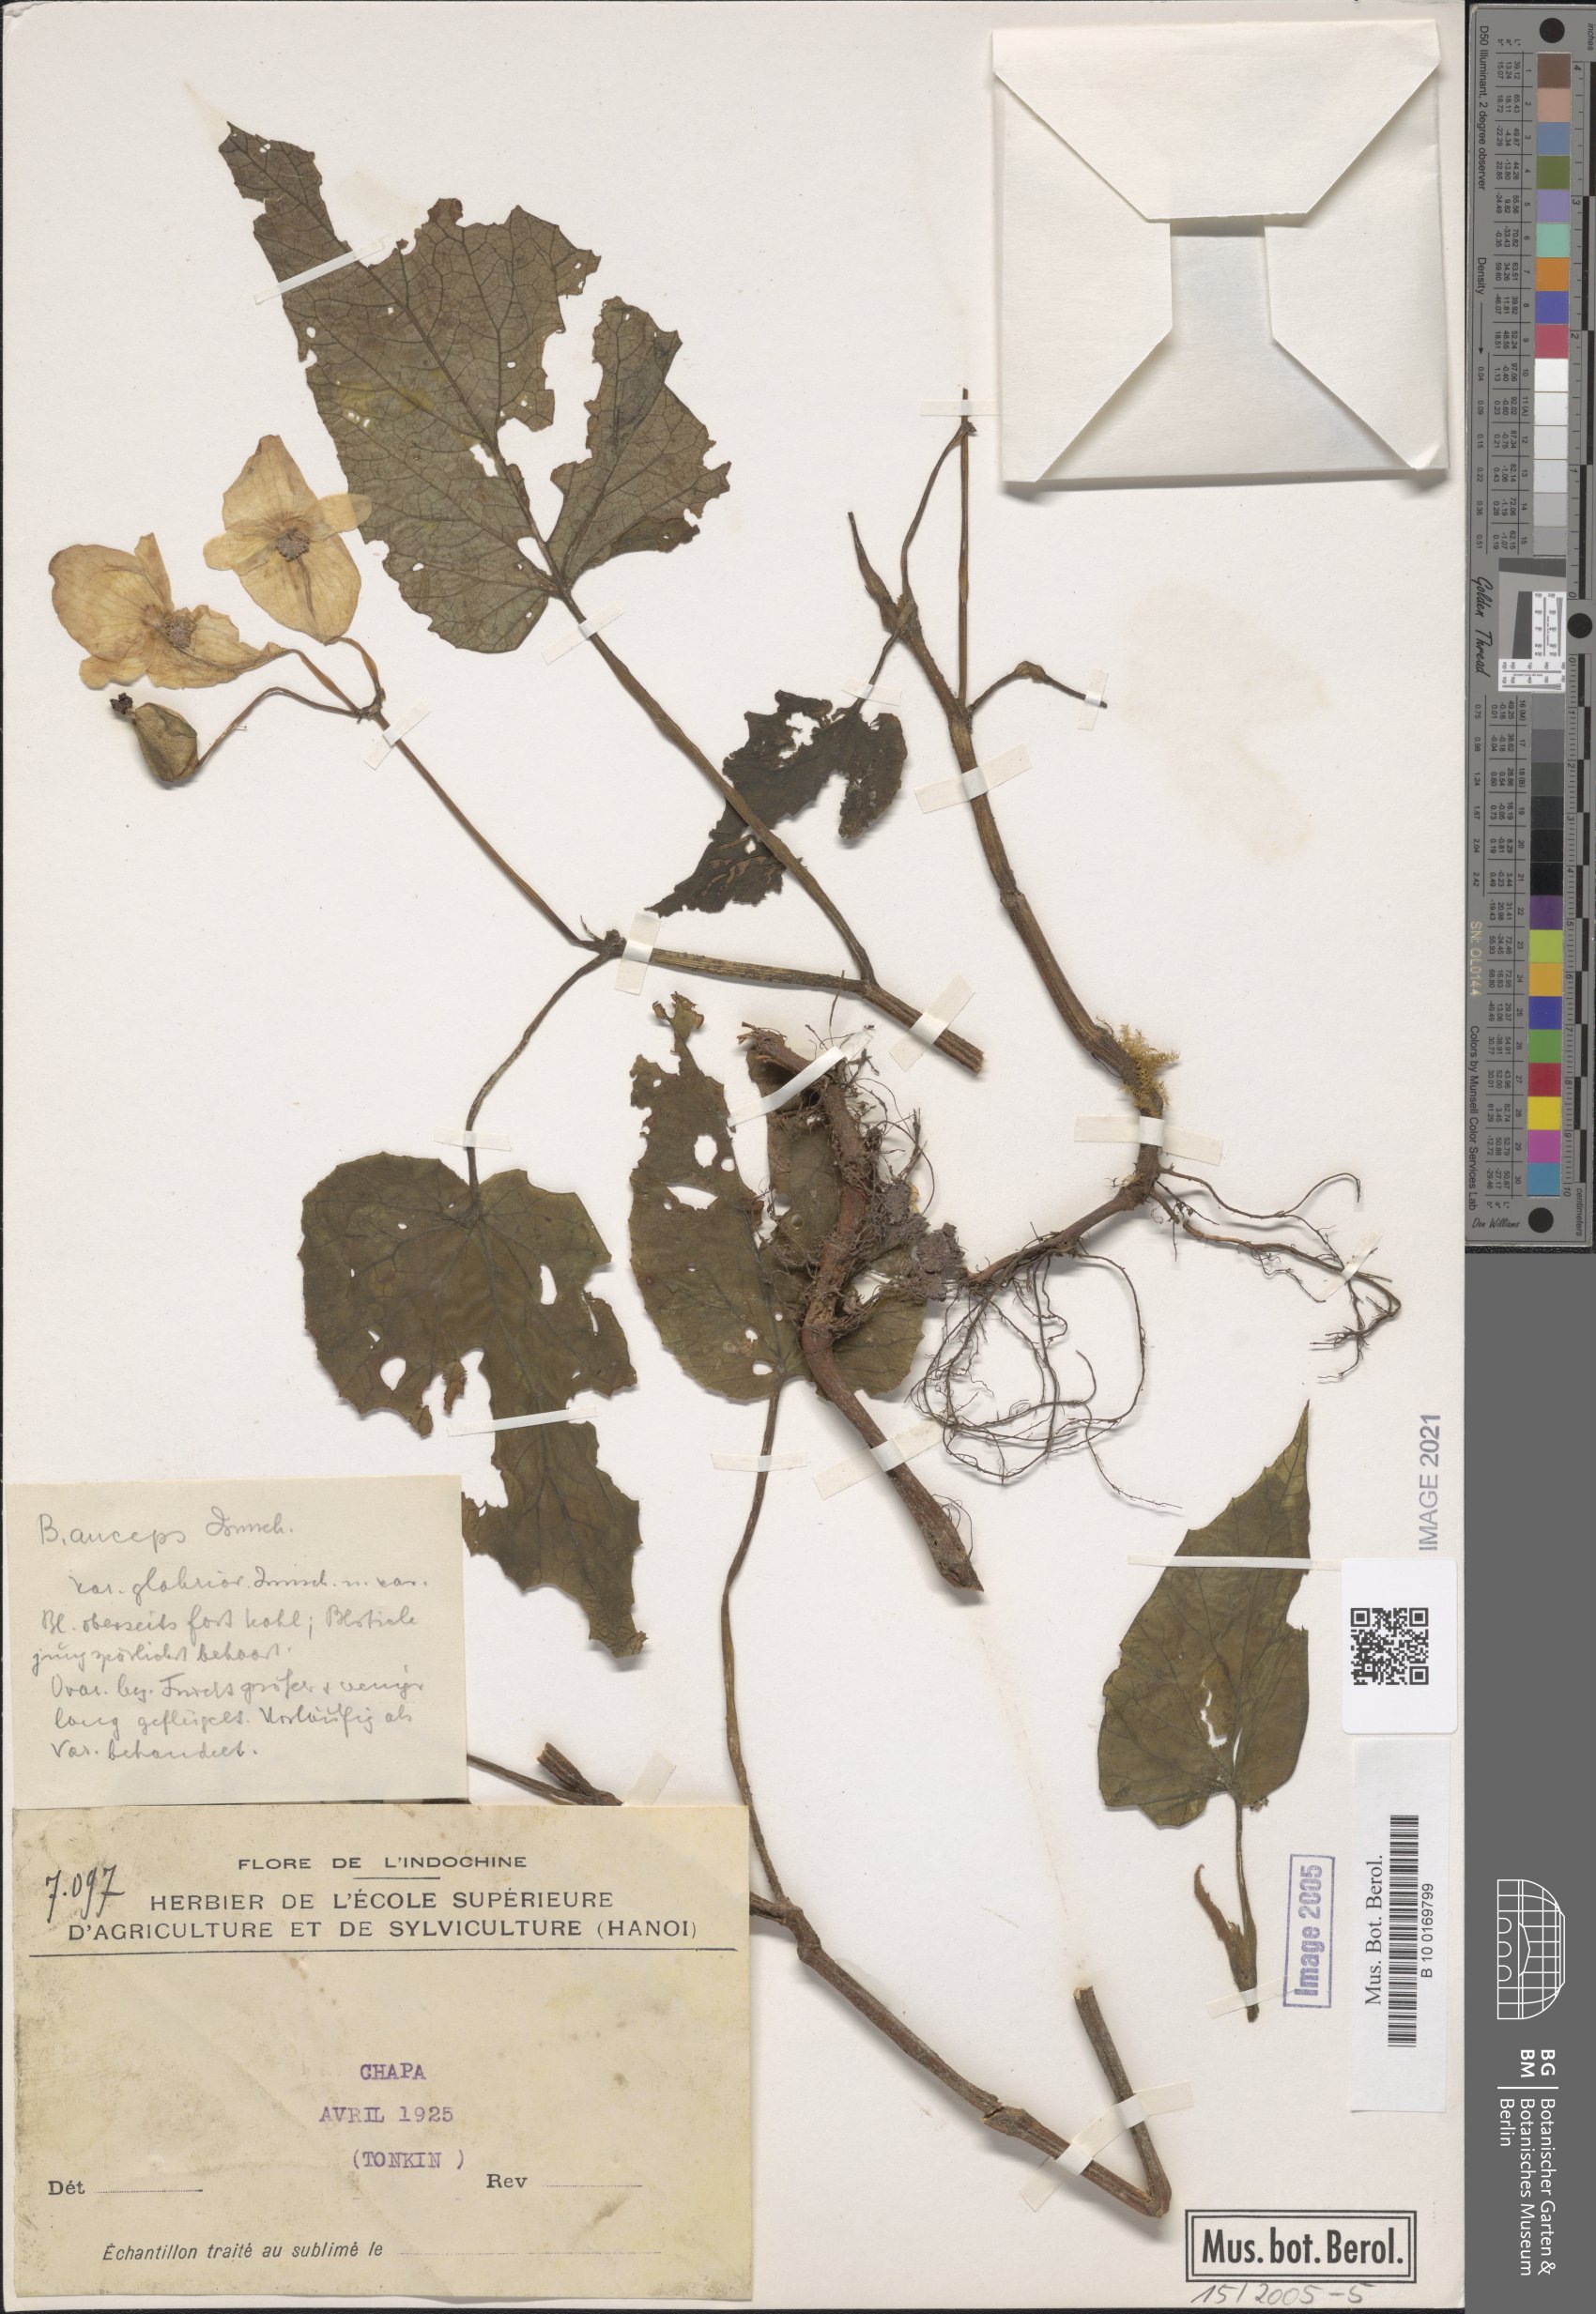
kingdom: Plantae
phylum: Tracheophyta
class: Magnoliopsida
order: Cucurbitales
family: Begoniaceae
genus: Begonia
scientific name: Begonia morifolia
